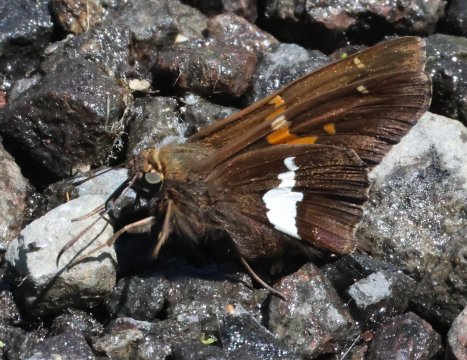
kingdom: Animalia
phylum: Arthropoda
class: Insecta
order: Lepidoptera
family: Hesperiidae
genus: Epargyreus
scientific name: Epargyreus clarus
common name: Silver-spotted Skipper
